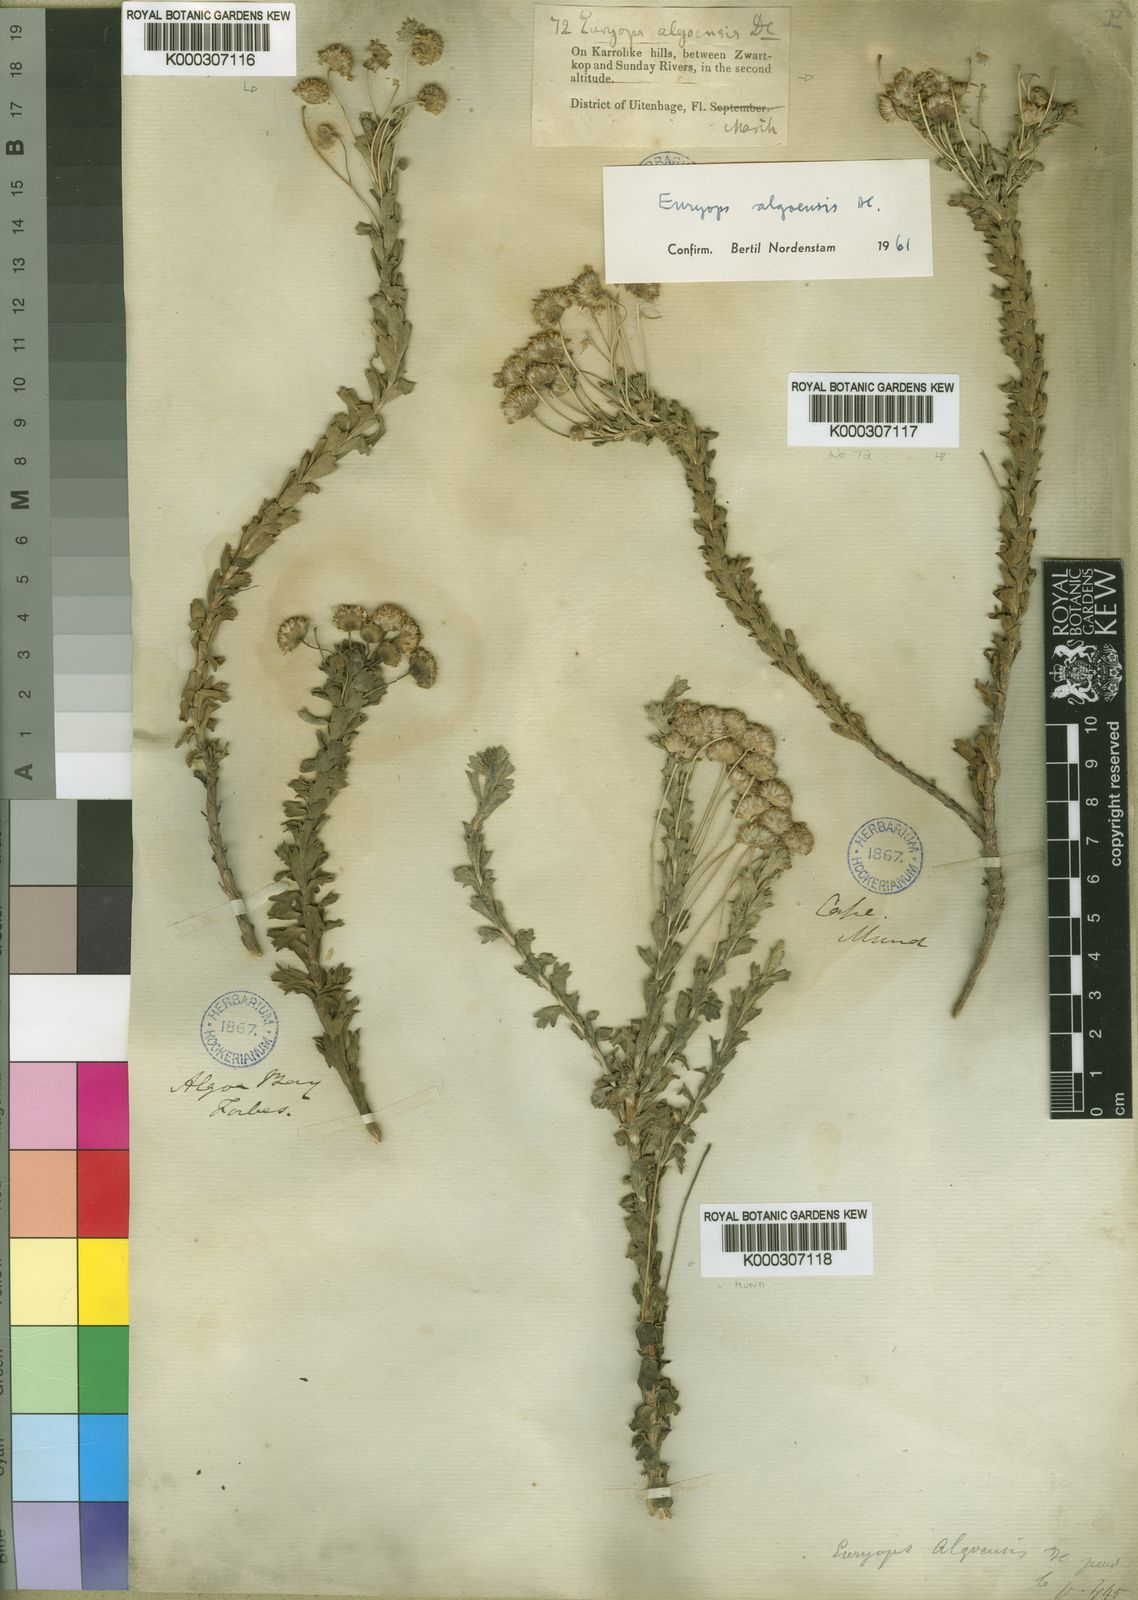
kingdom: Plantae
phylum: Tracheophyta
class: Magnoliopsida
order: Asterales
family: Asteraceae
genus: Euryops
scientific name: Euryops algoensis
